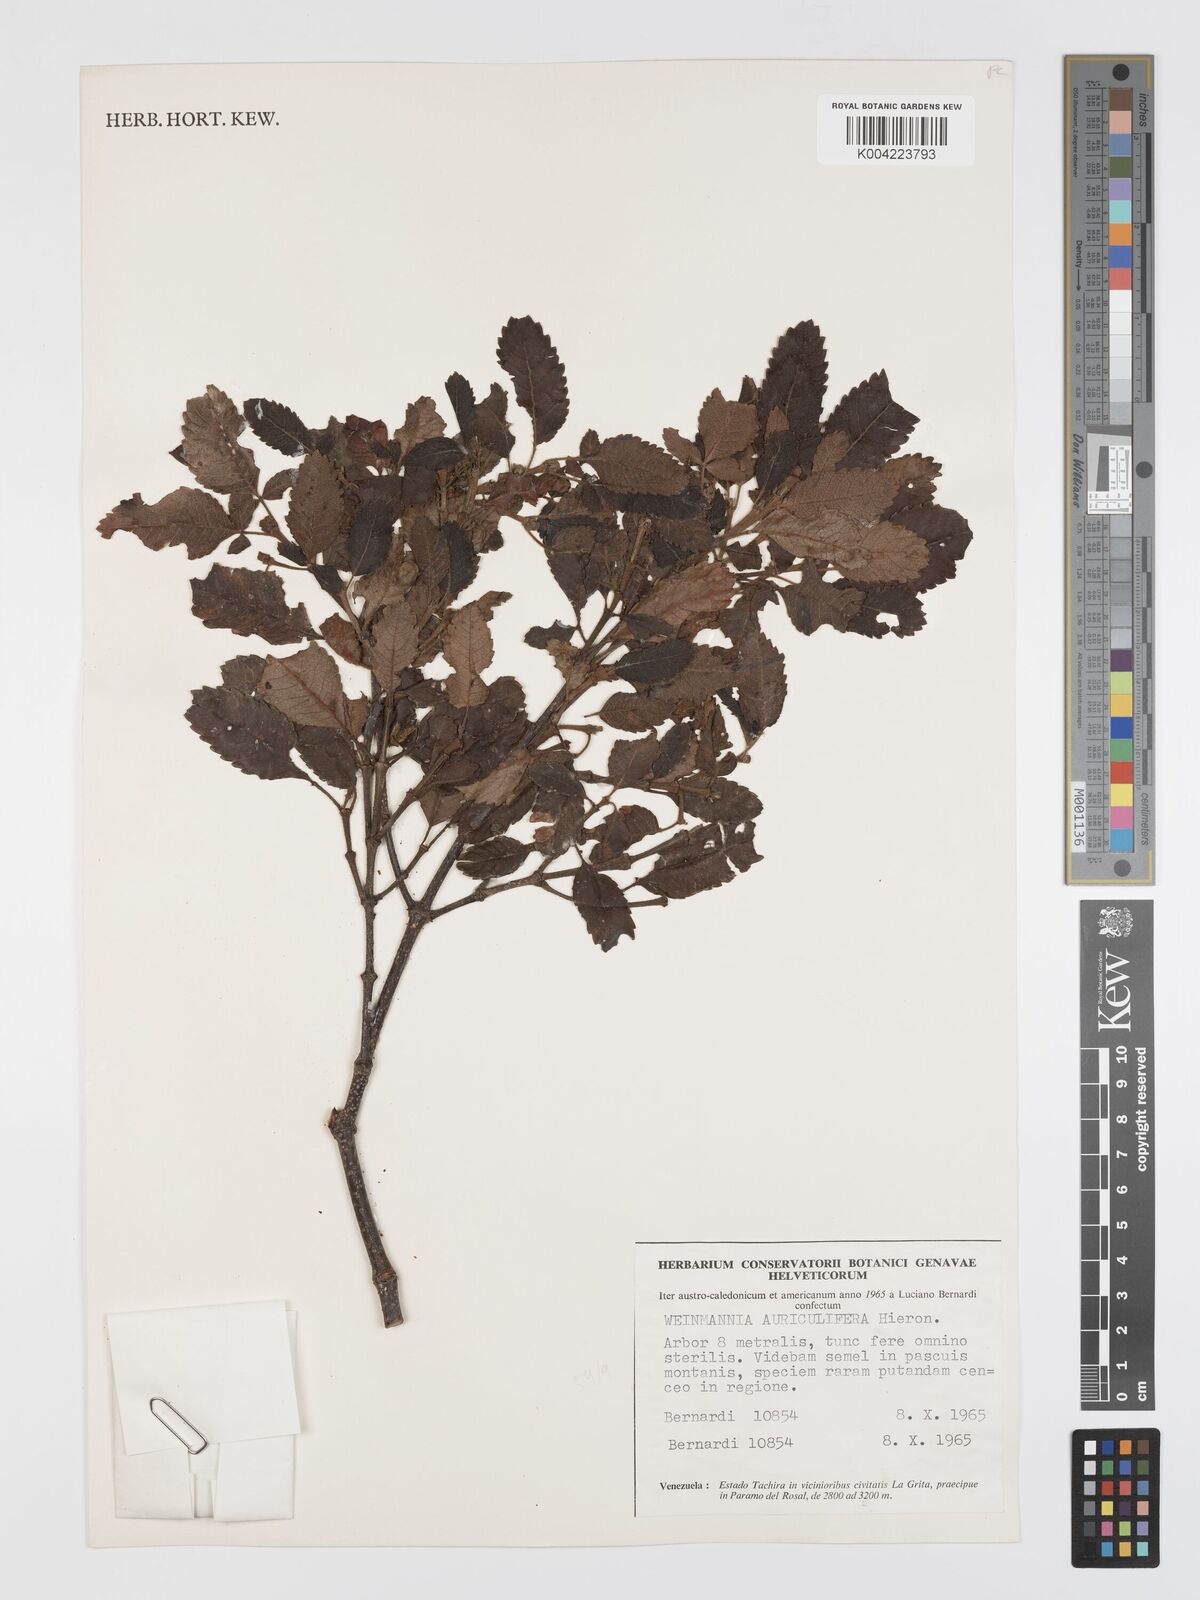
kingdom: Plantae
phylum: Tracheophyta
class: Magnoliopsida
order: Oxalidales
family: Cunoniaceae
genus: Weinmannia
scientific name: Weinmannia cordata
